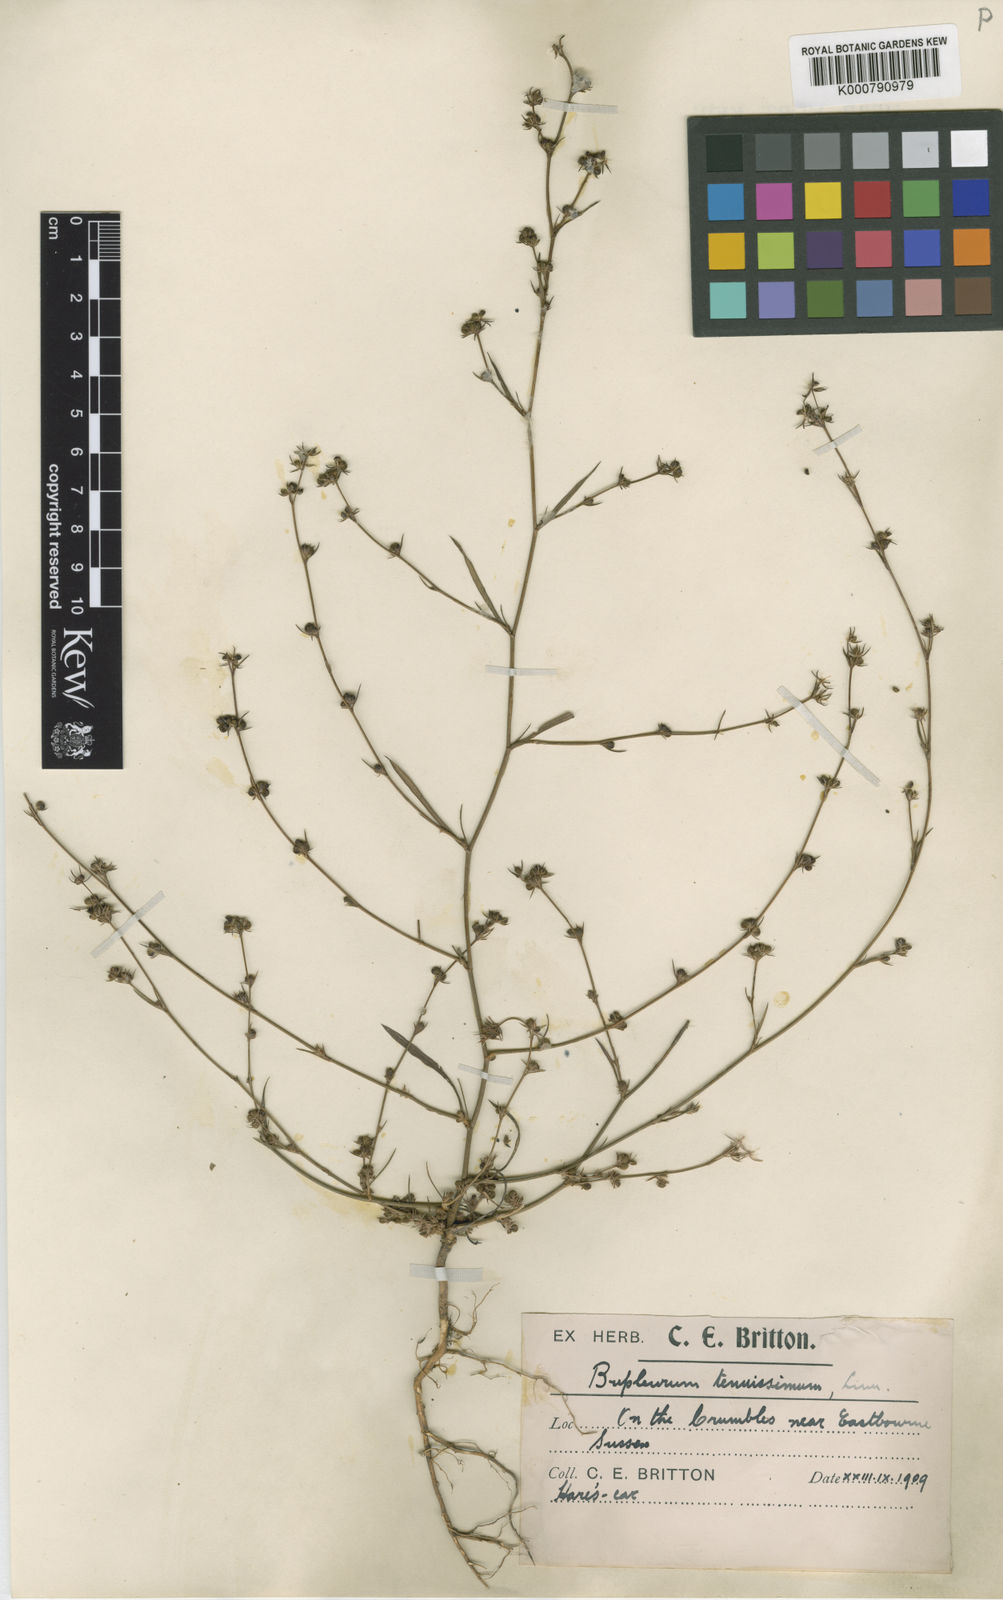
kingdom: Plantae
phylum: Tracheophyta
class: Magnoliopsida
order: Apiales
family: Apiaceae
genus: Bupleurum
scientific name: Bupleurum tenuissimum
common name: Slender hare's-ear
